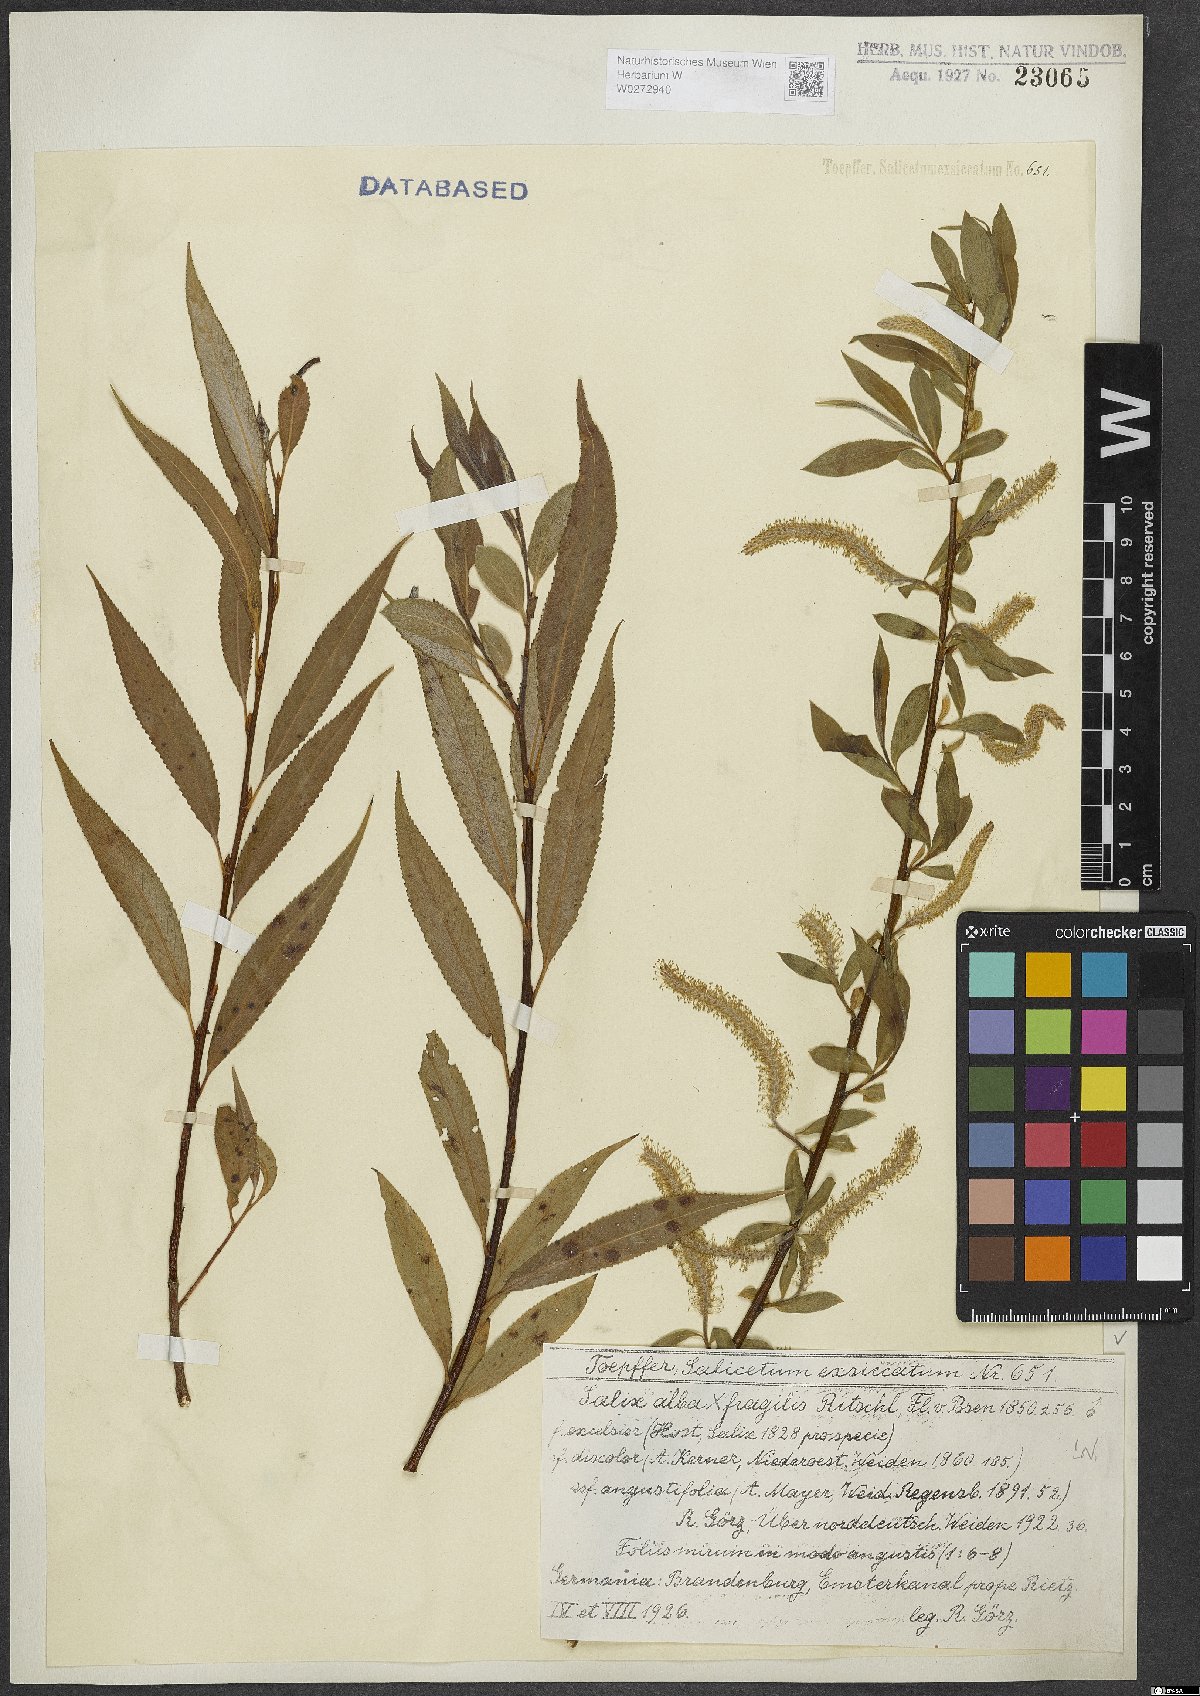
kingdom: Plantae
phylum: Tracheophyta
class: Magnoliopsida
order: Malpighiales
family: Salicaceae
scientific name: Salicaceae
